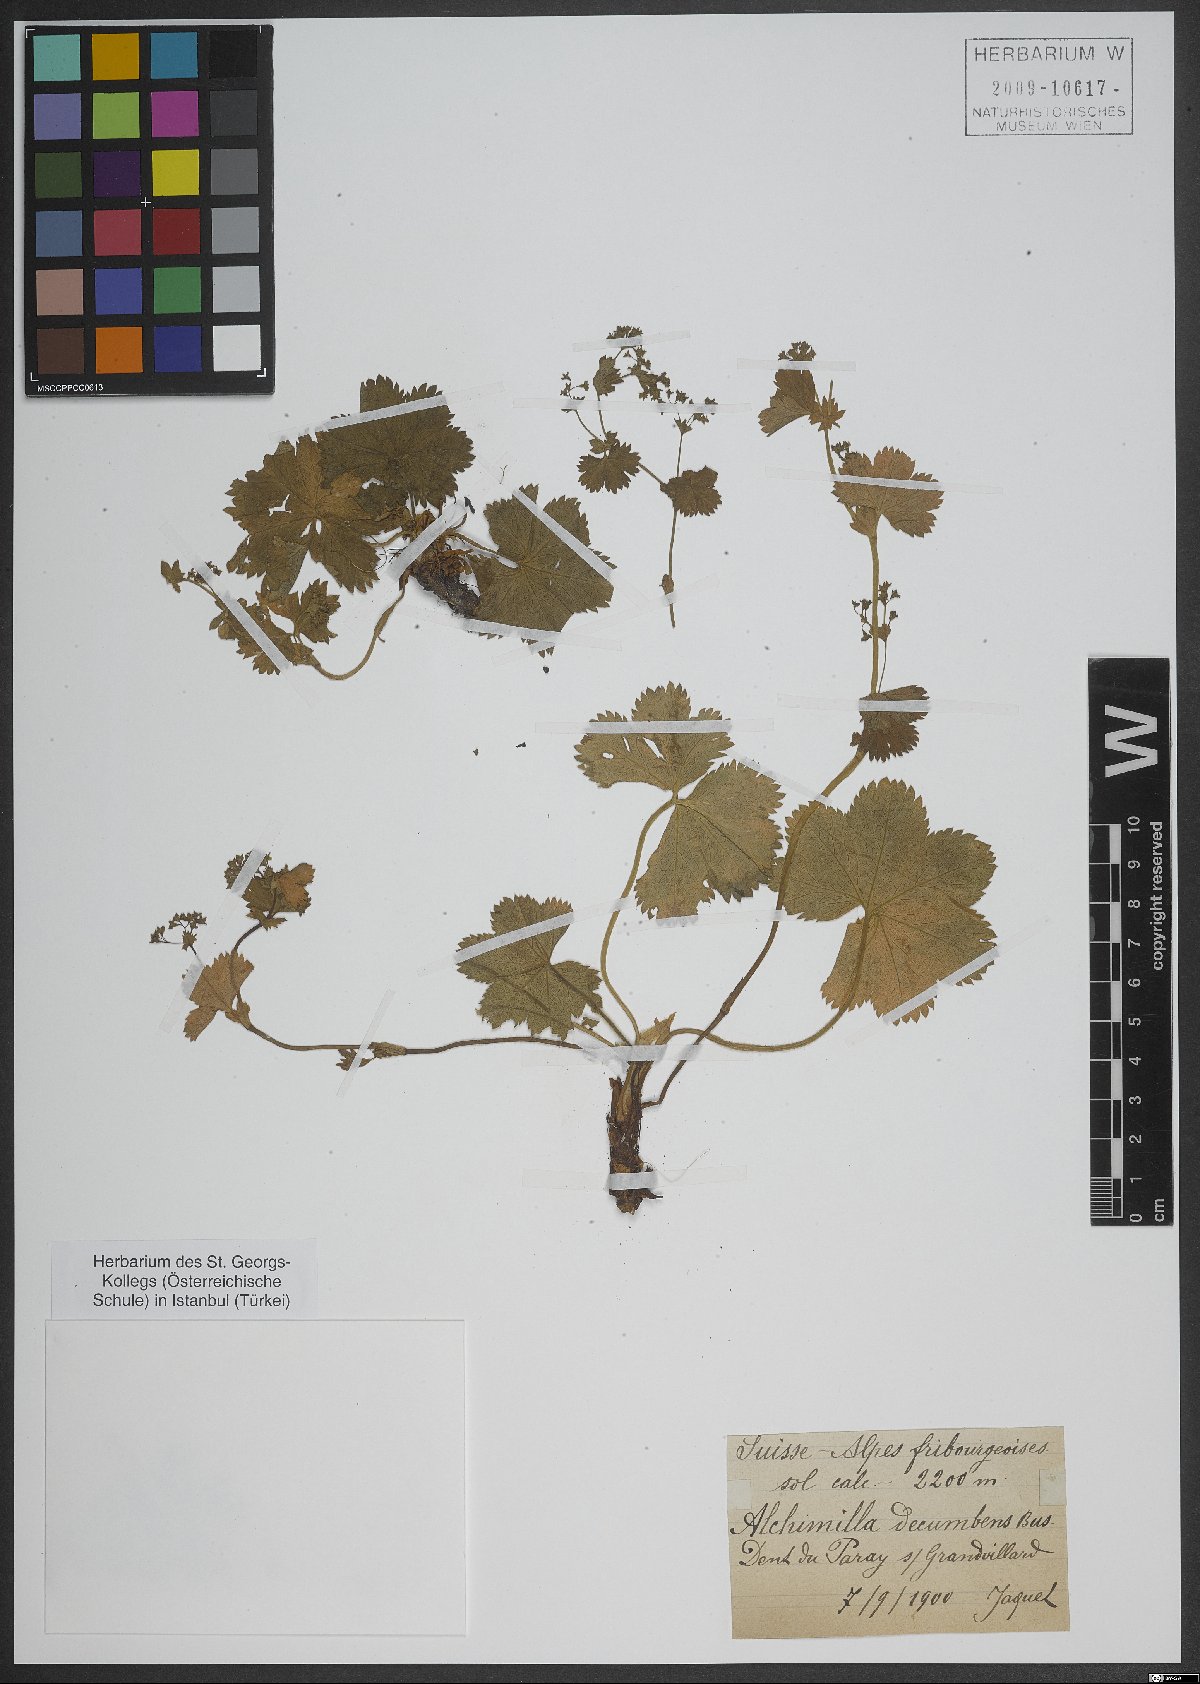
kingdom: Plantae
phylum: Tracheophyta
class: Magnoliopsida
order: Rosales
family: Rosaceae
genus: Alchemilla
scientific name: Alchemilla decumbens
